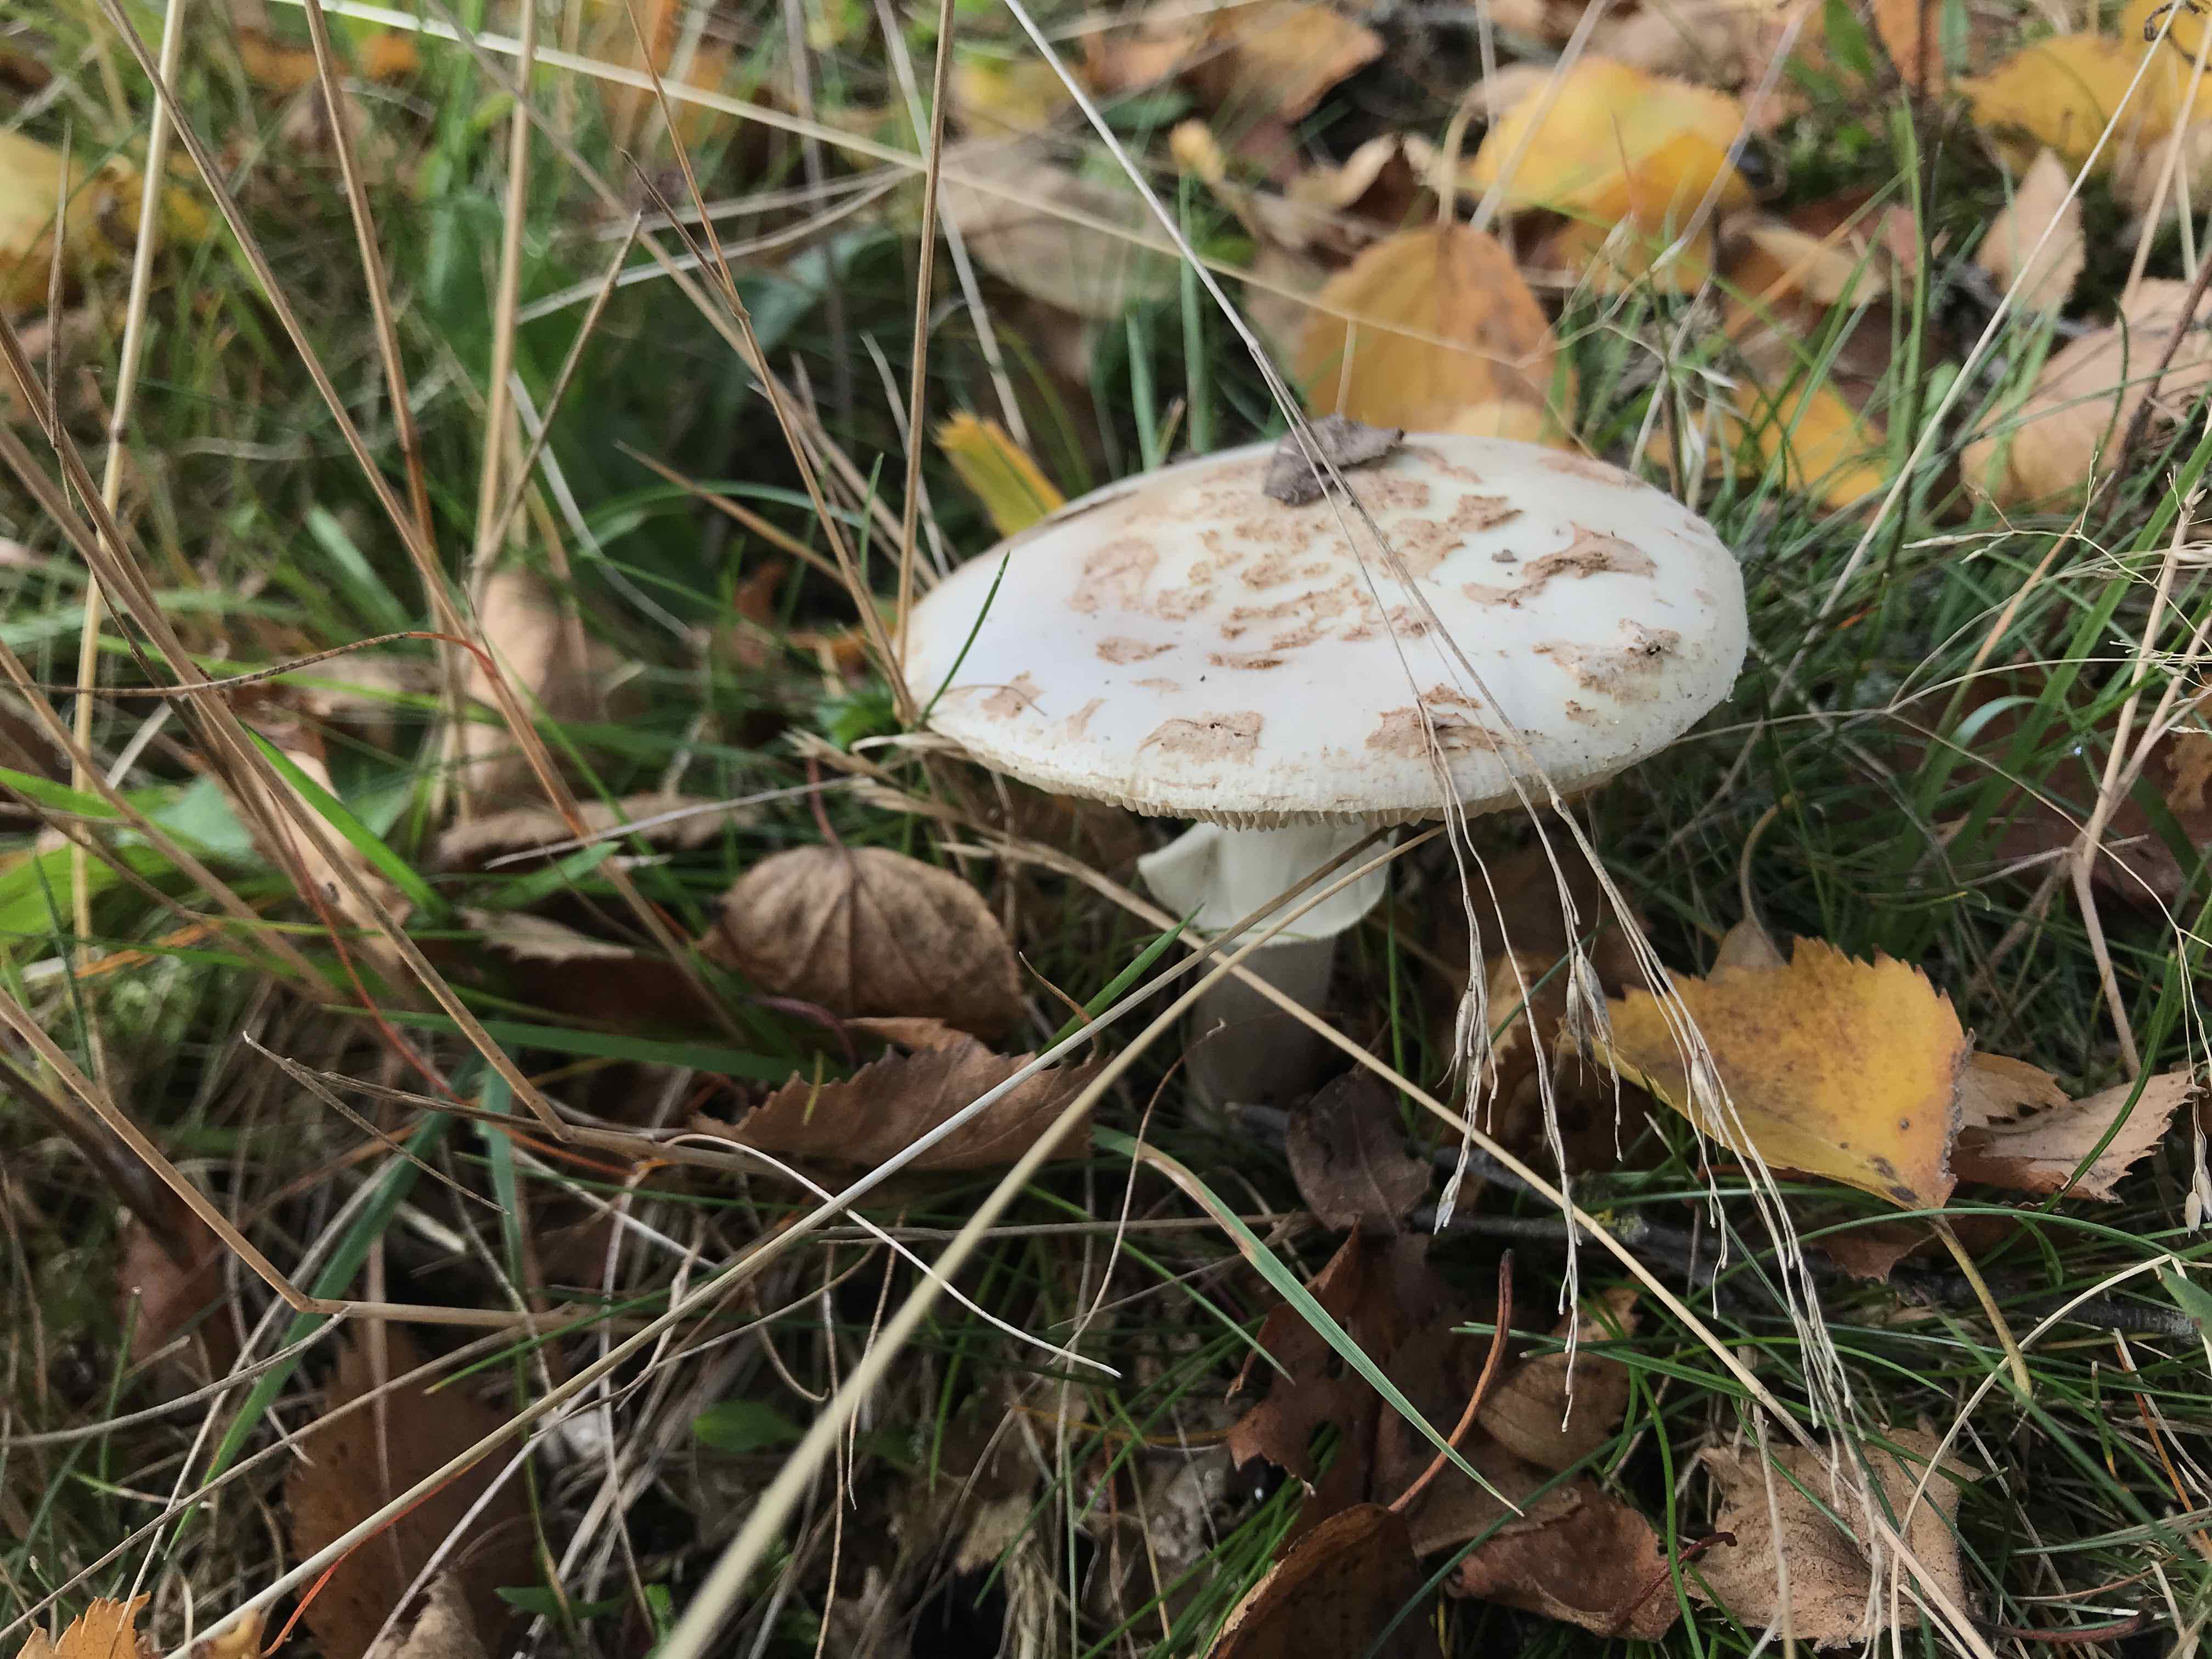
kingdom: Fungi
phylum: Basidiomycota
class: Agaricomycetes
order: Agaricales
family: Amanitaceae
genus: Amanita
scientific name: Amanita citrina
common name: kugleknoldet fluesvamp
